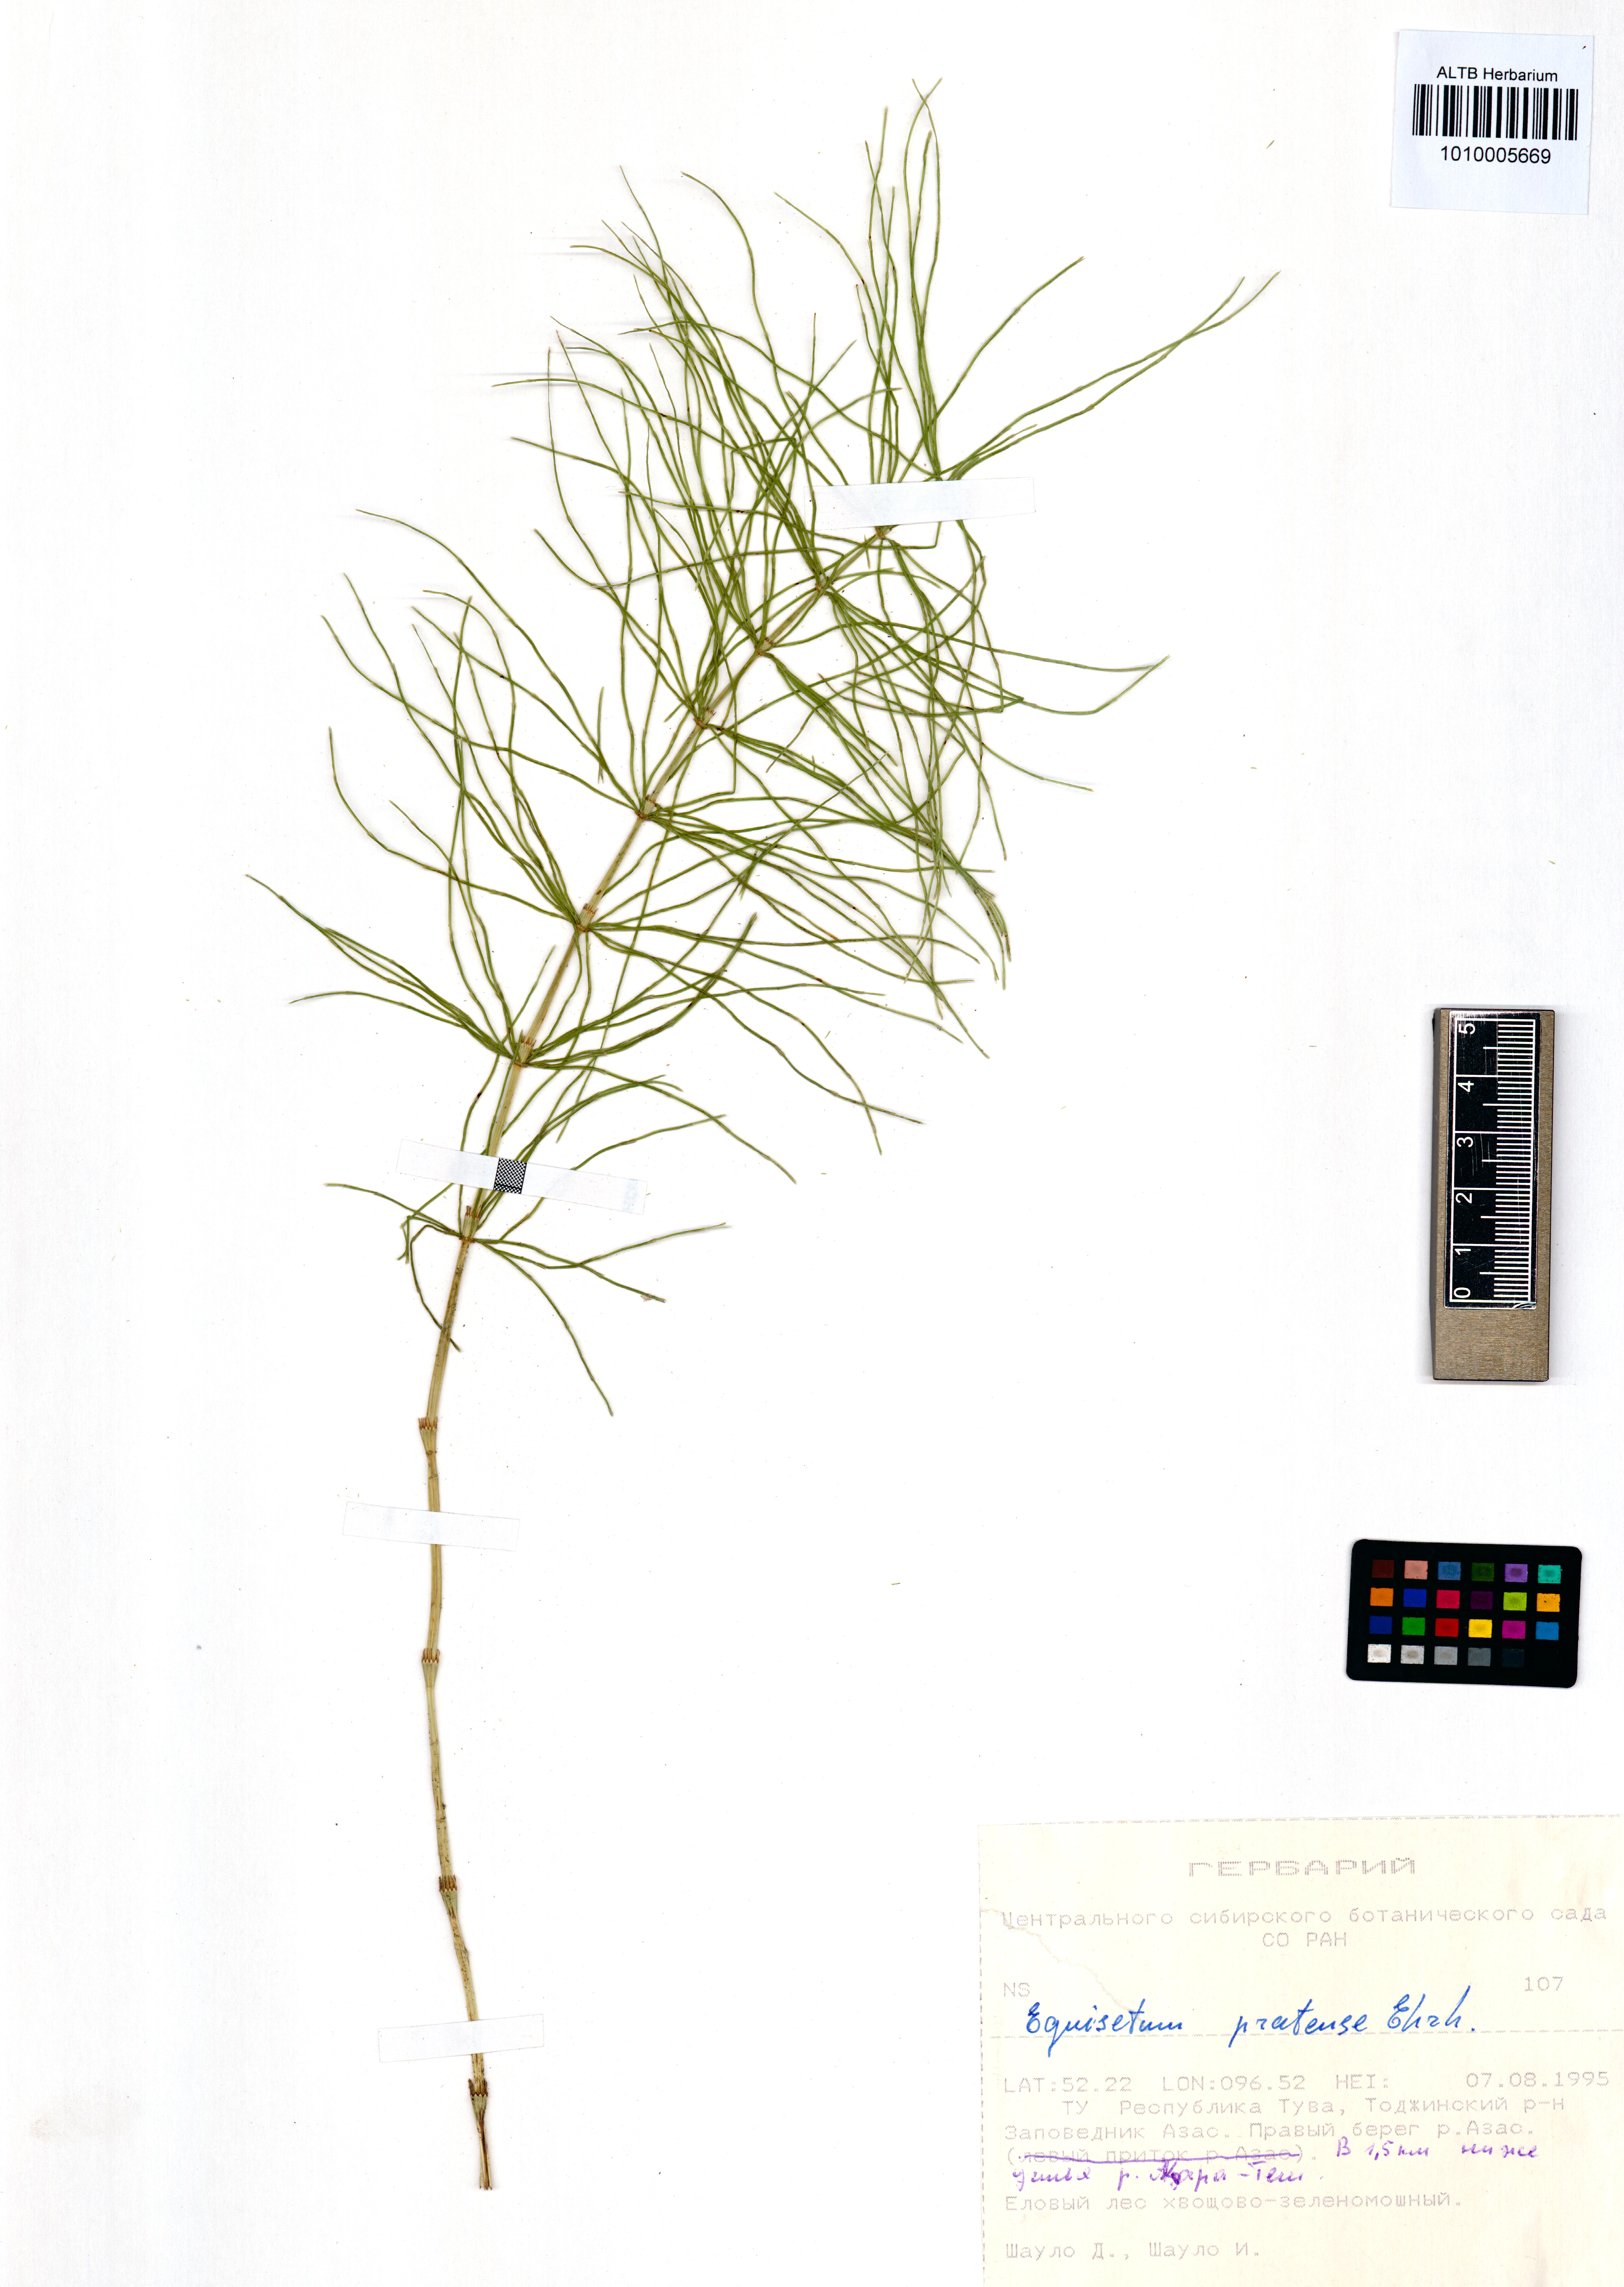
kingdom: Plantae
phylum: Tracheophyta
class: Polypodiopsida
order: Equisetales
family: Equisetaceae
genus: Equisetum
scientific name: Equisetum pratense
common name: Meadow horsetail
